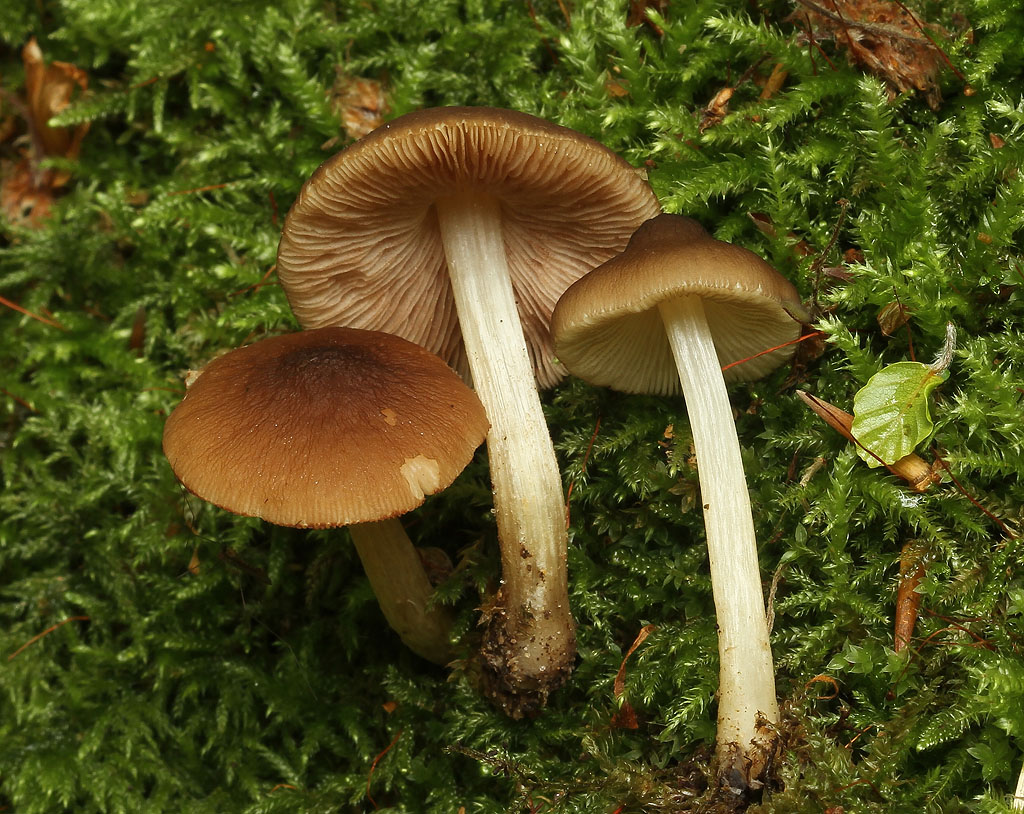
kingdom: Fungi
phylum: Basidiomycota
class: Agaricomycetes
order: Agaricales
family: Pluteaceae
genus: Pluteus
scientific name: Pluteus phlebophorus
